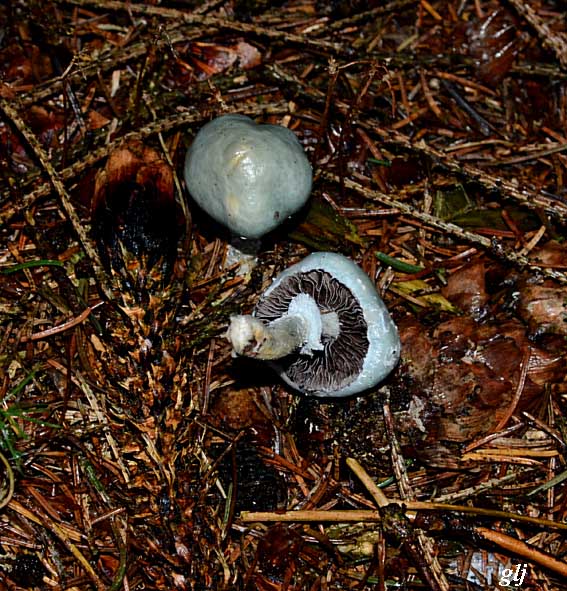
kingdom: Fungi
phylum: Basidiomycota
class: Agaricomycetes
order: Agaricales
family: Strophariaceae
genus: Stropharia
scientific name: Stropharia aeruginosa
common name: spanskgrøn bredblad
